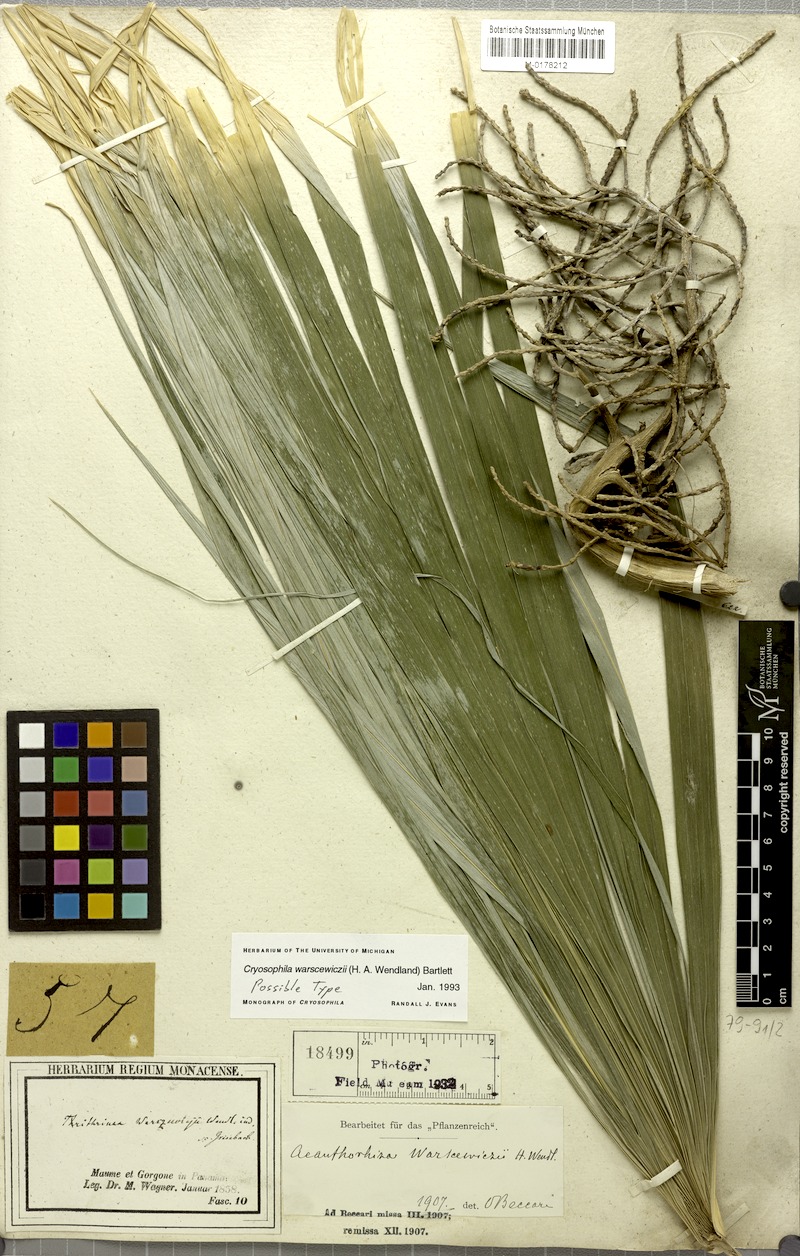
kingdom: Plantae
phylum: Tracheophyta
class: Liliopsida
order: Arecales
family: Arecaceae
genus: Cryosophila
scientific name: Cryosophila warscewiczii
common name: Root-spine palm
